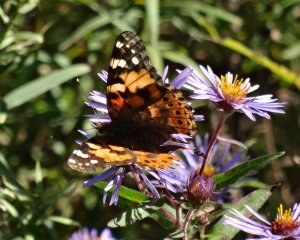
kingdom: Animalia
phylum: Arthropoda
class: Insecta
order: Lepidoptera
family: Nymphalidae
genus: Vanessa
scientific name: Vanessa cardui
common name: Painted Lady
